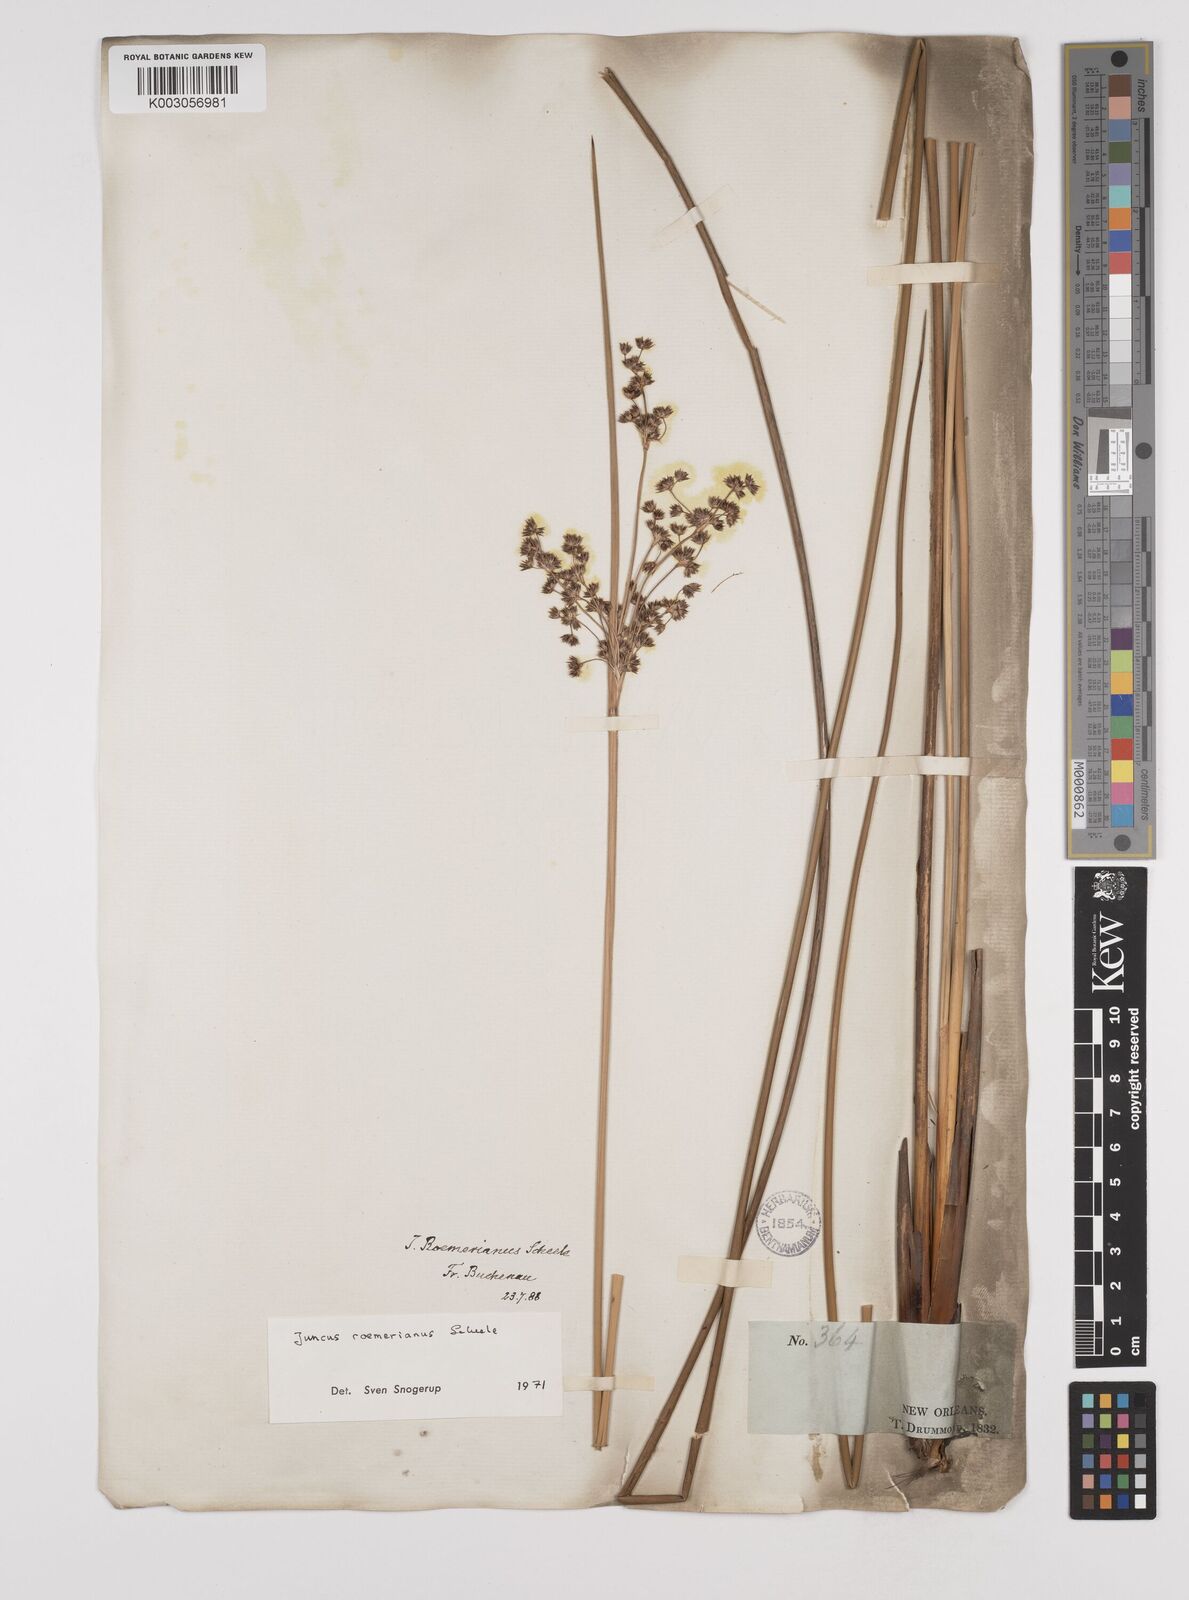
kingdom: Plantae
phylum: Tracheophyta
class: Liliopsida
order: Poales
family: Juncaceae
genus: Juncus
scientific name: Juncus roemerianus
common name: Roemer's rush
